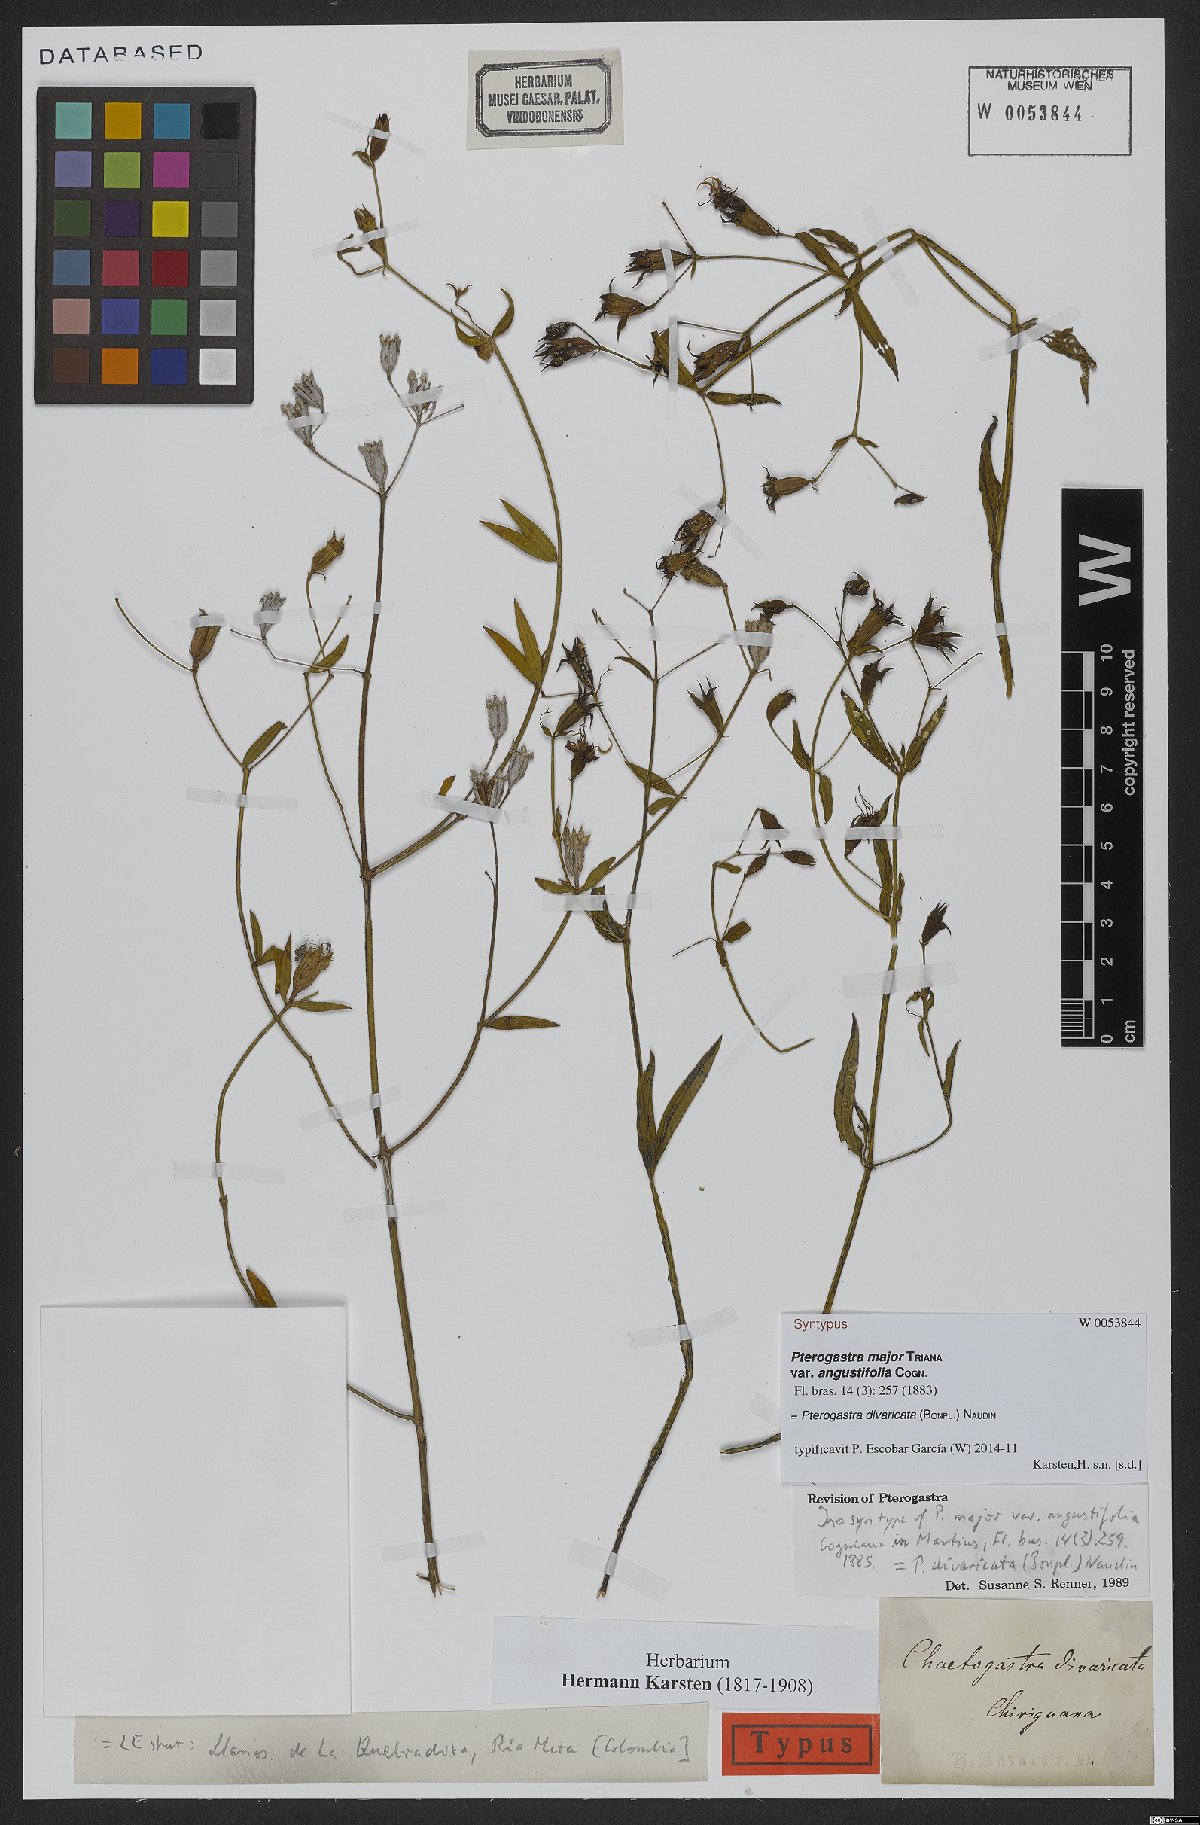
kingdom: Plantae
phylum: Tracheophyta
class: Magnoliopsida
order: Myrtales
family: Melastomataceae
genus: Pterogastra
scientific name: Pterogastra divaricata
